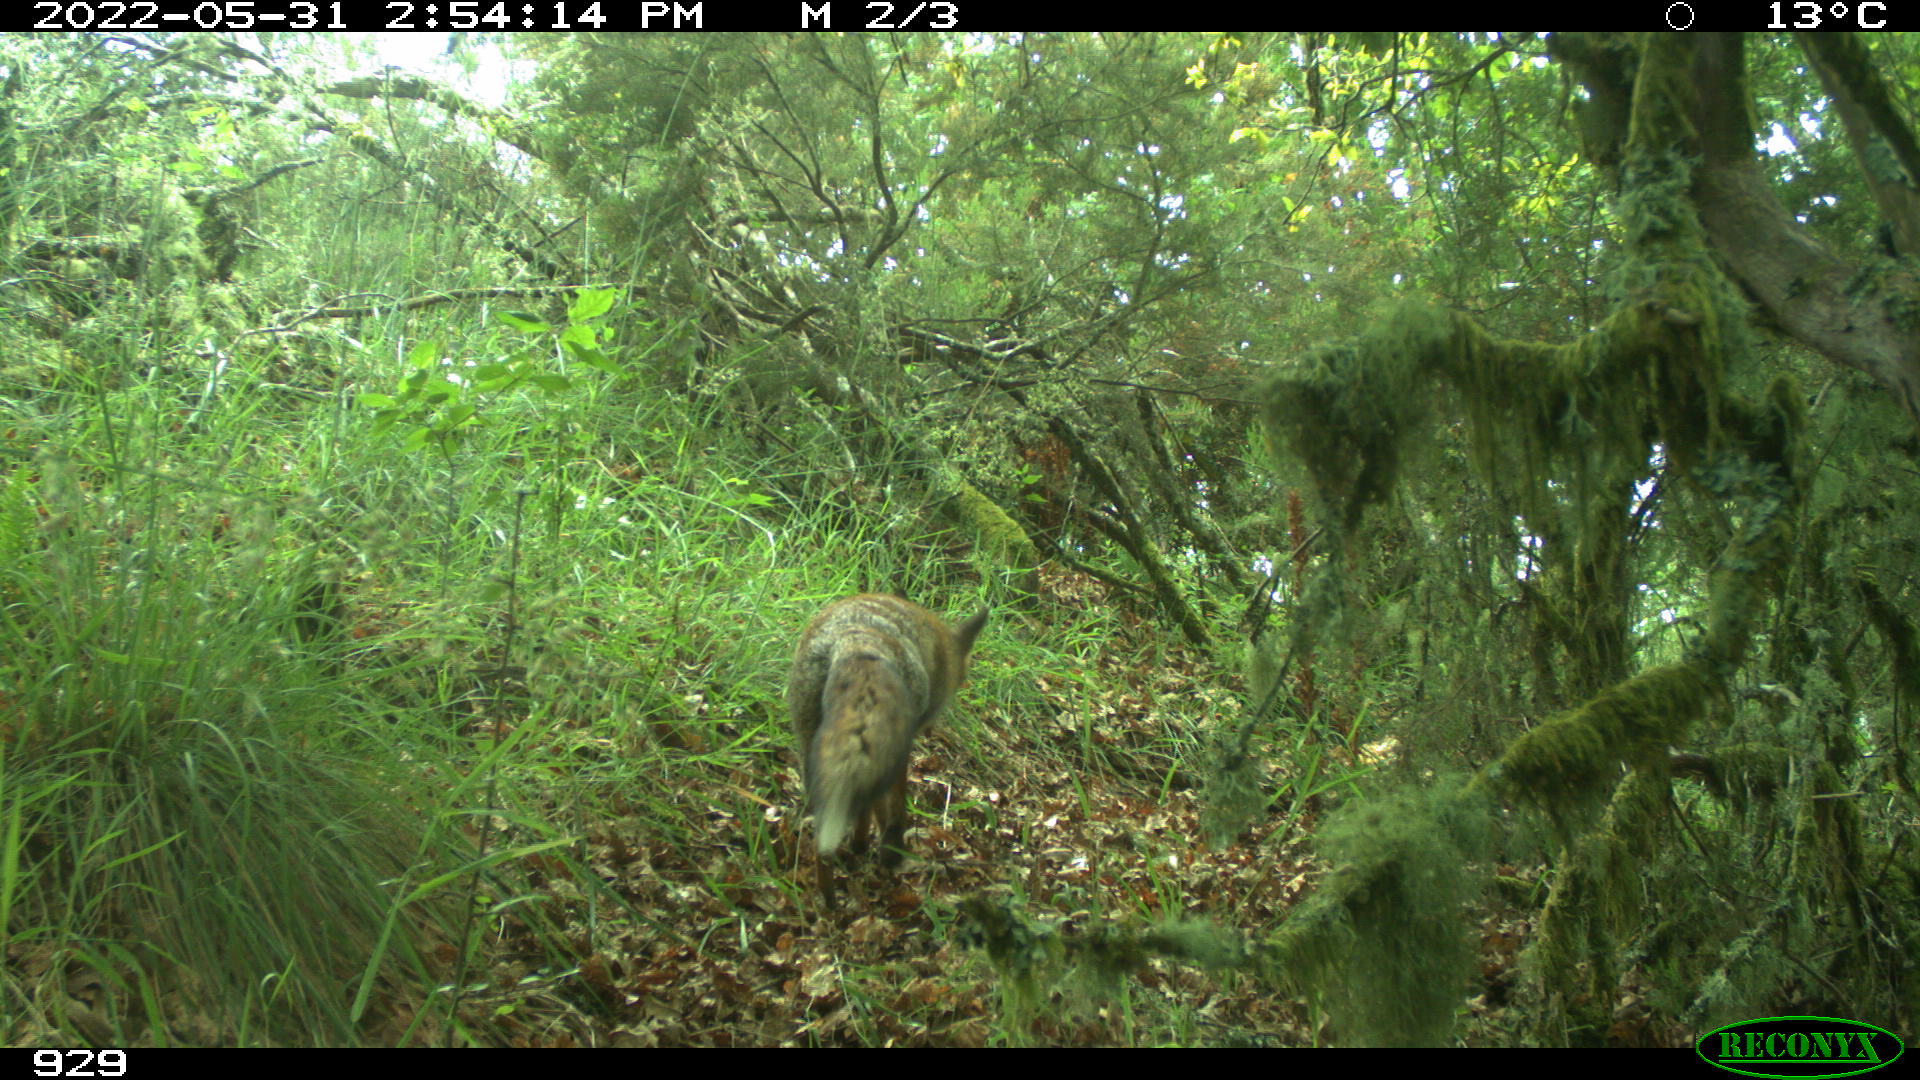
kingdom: Animalia
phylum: Chordata
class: Mammalia
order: Carnivora
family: Canidae
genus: Vulpes
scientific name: Vulpes vulpes
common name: Red fox
